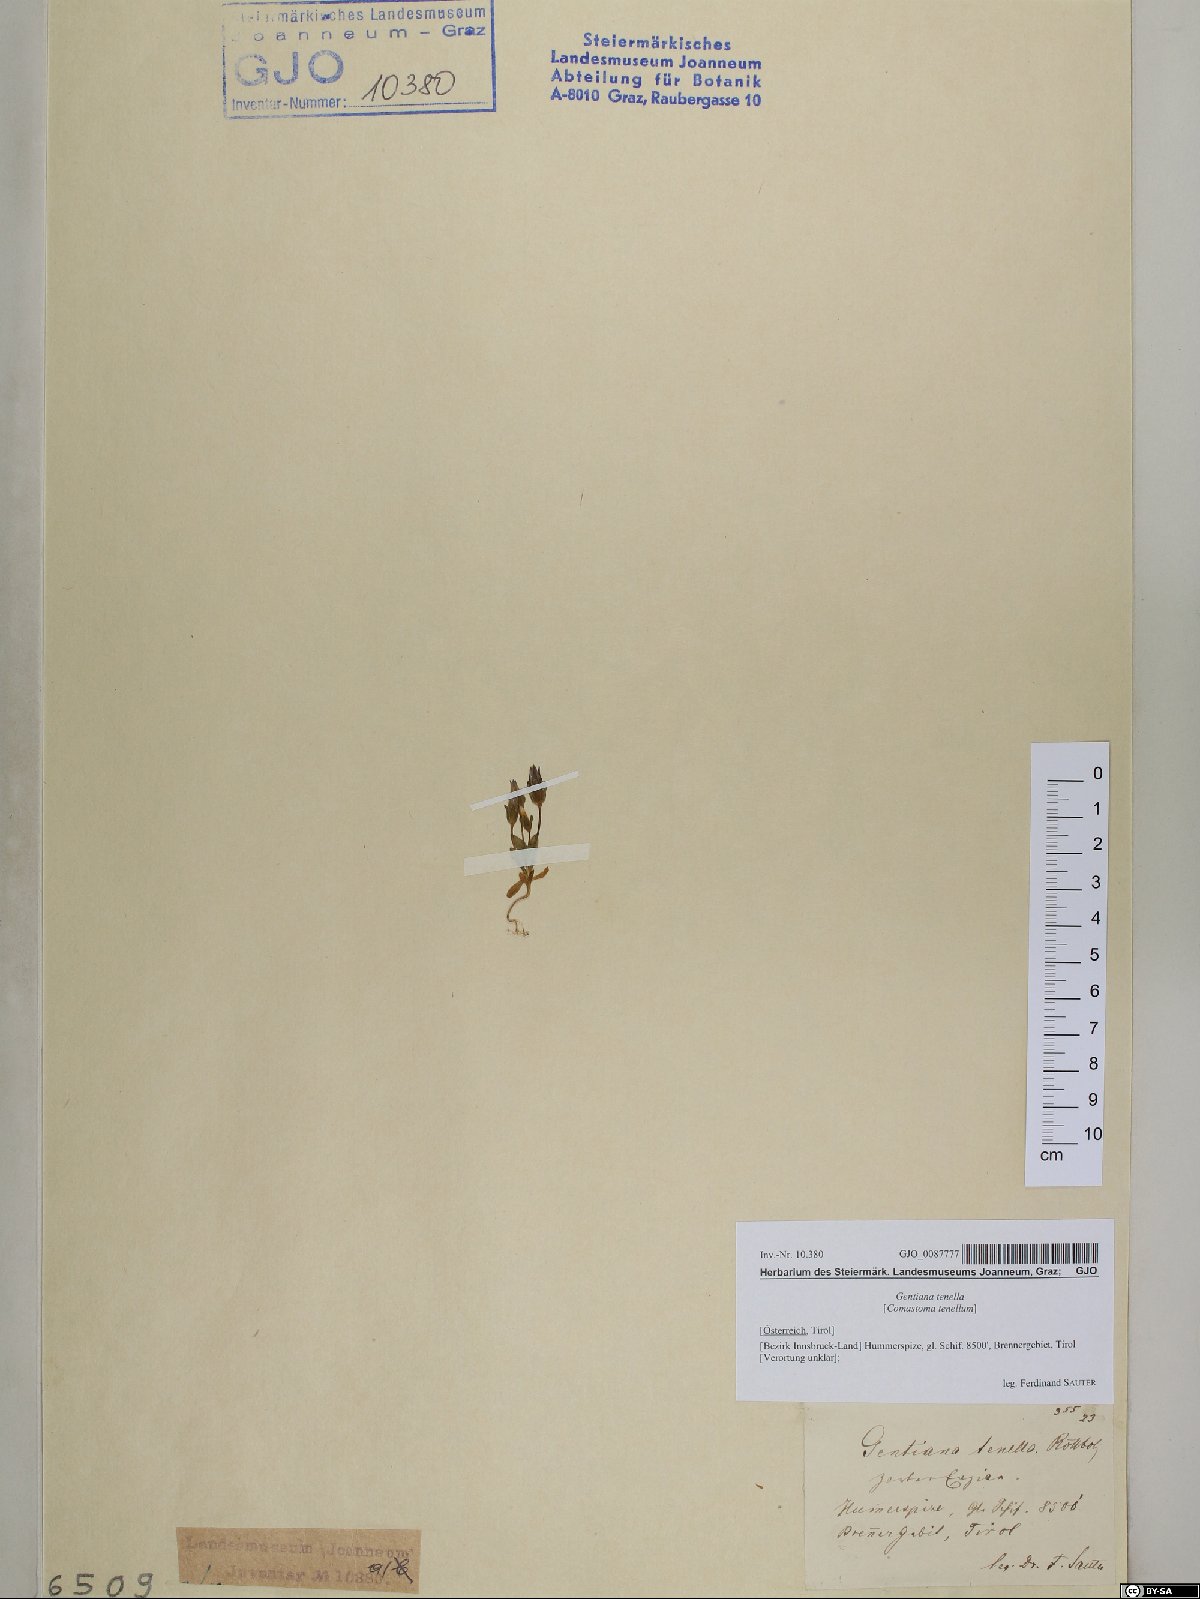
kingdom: Plantae
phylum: Tracheophyta
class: Magnoliopsida
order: Gentianales
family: Gentianaceae
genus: Comastoma
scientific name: Comastoma tenellum
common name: Dane's dwarf gentian
